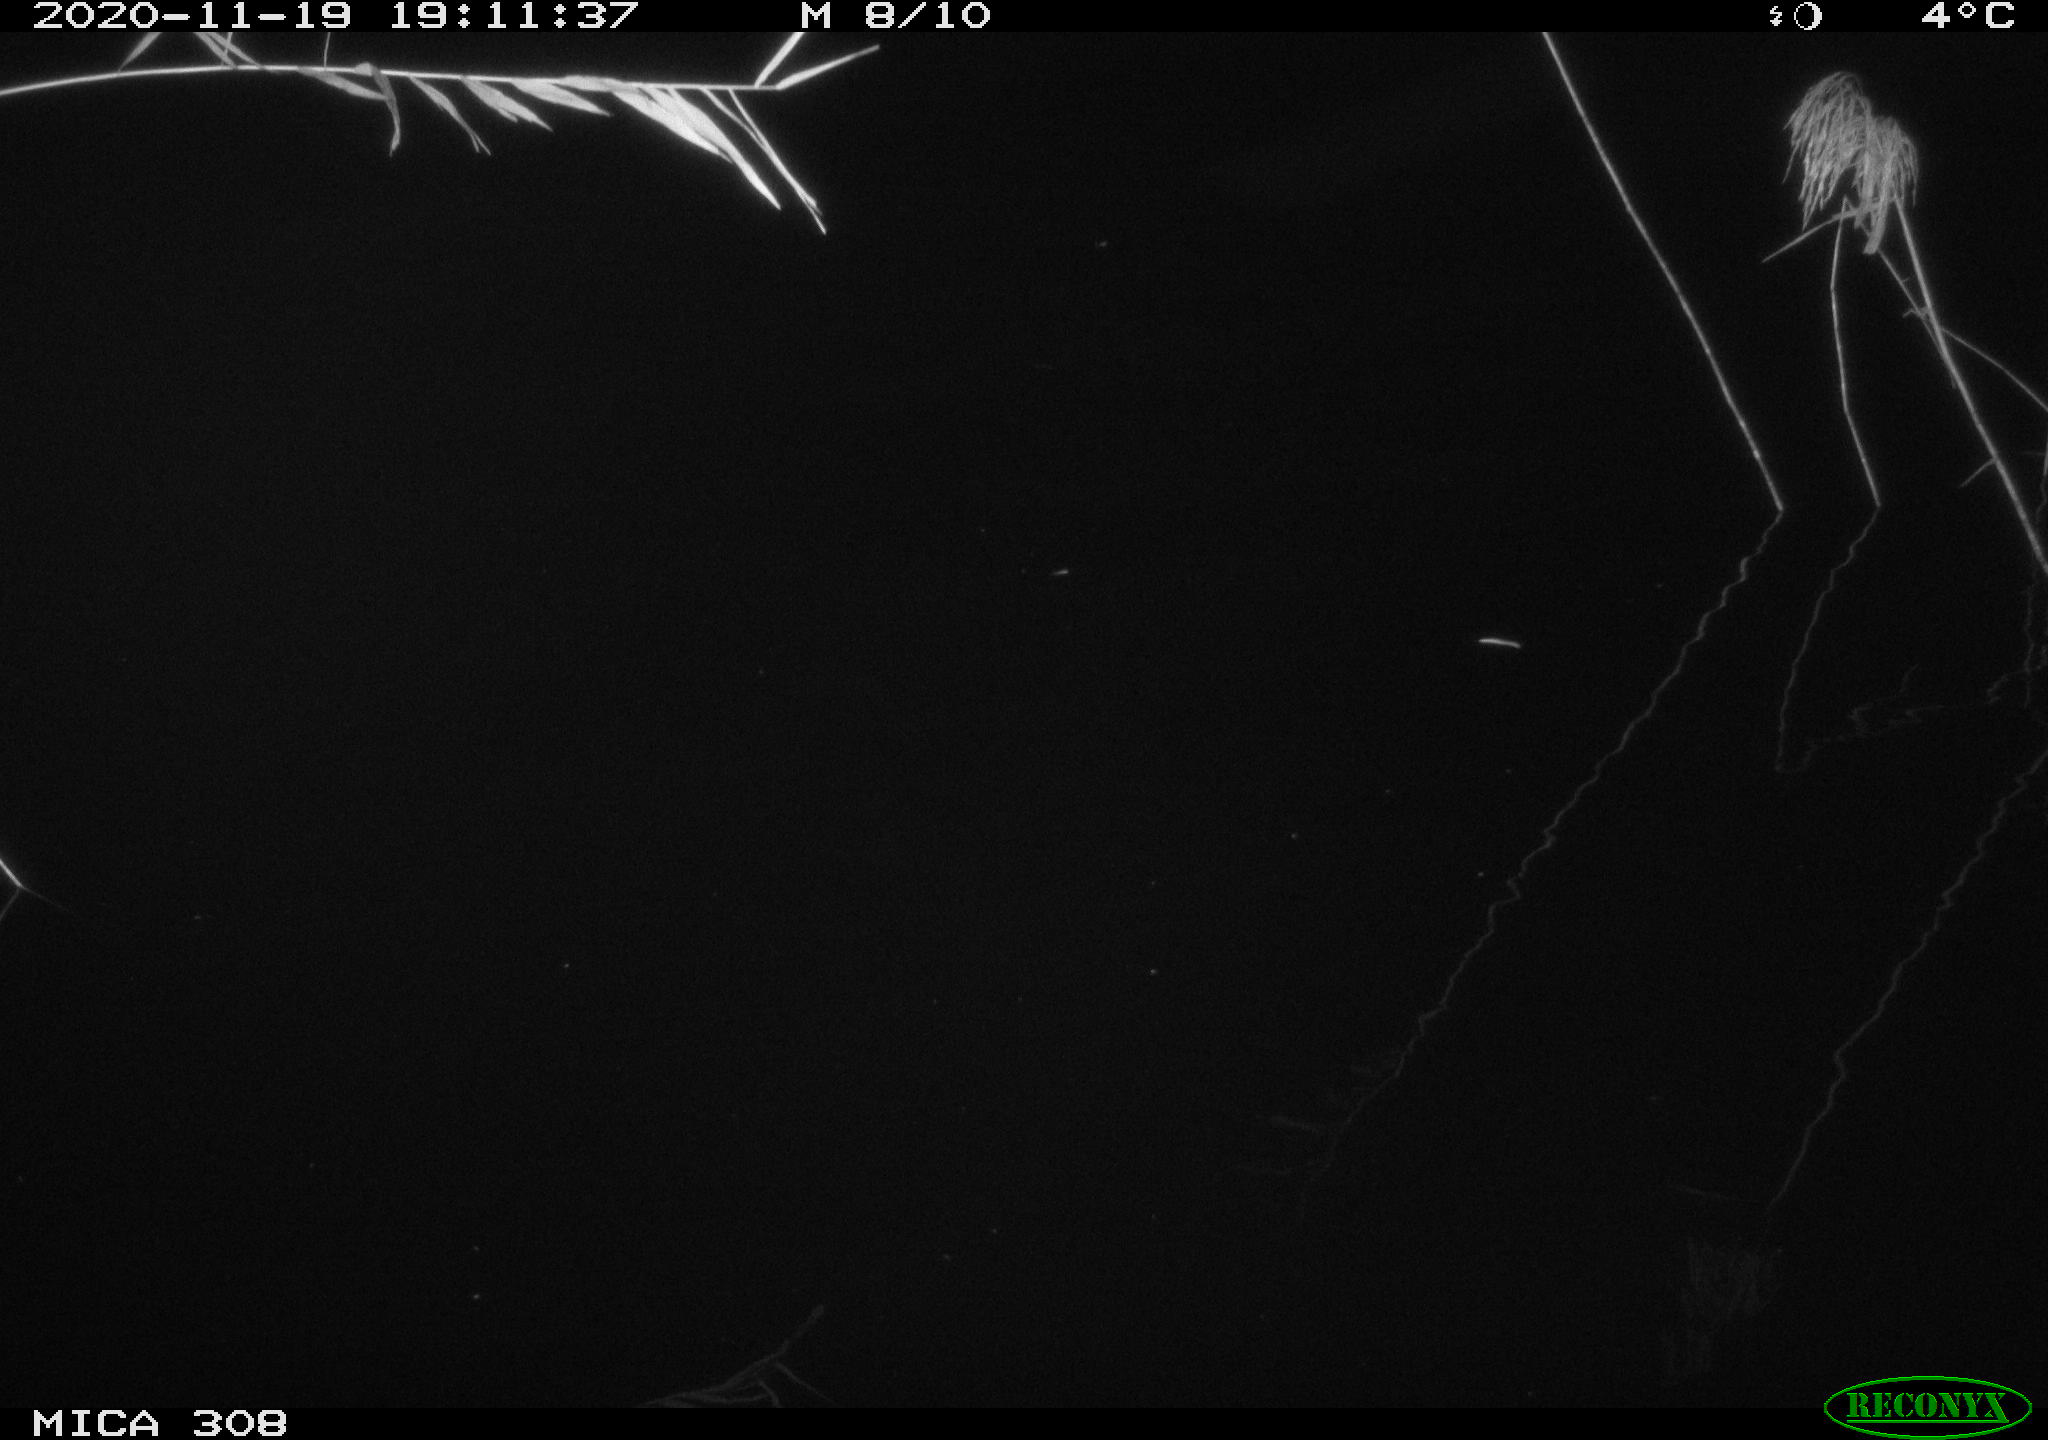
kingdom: Animalia
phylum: Chordata
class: Mammalia
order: Rodentia
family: Cricetidae
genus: Ondatra
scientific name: Ondatra zibethicus
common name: Muskrat
